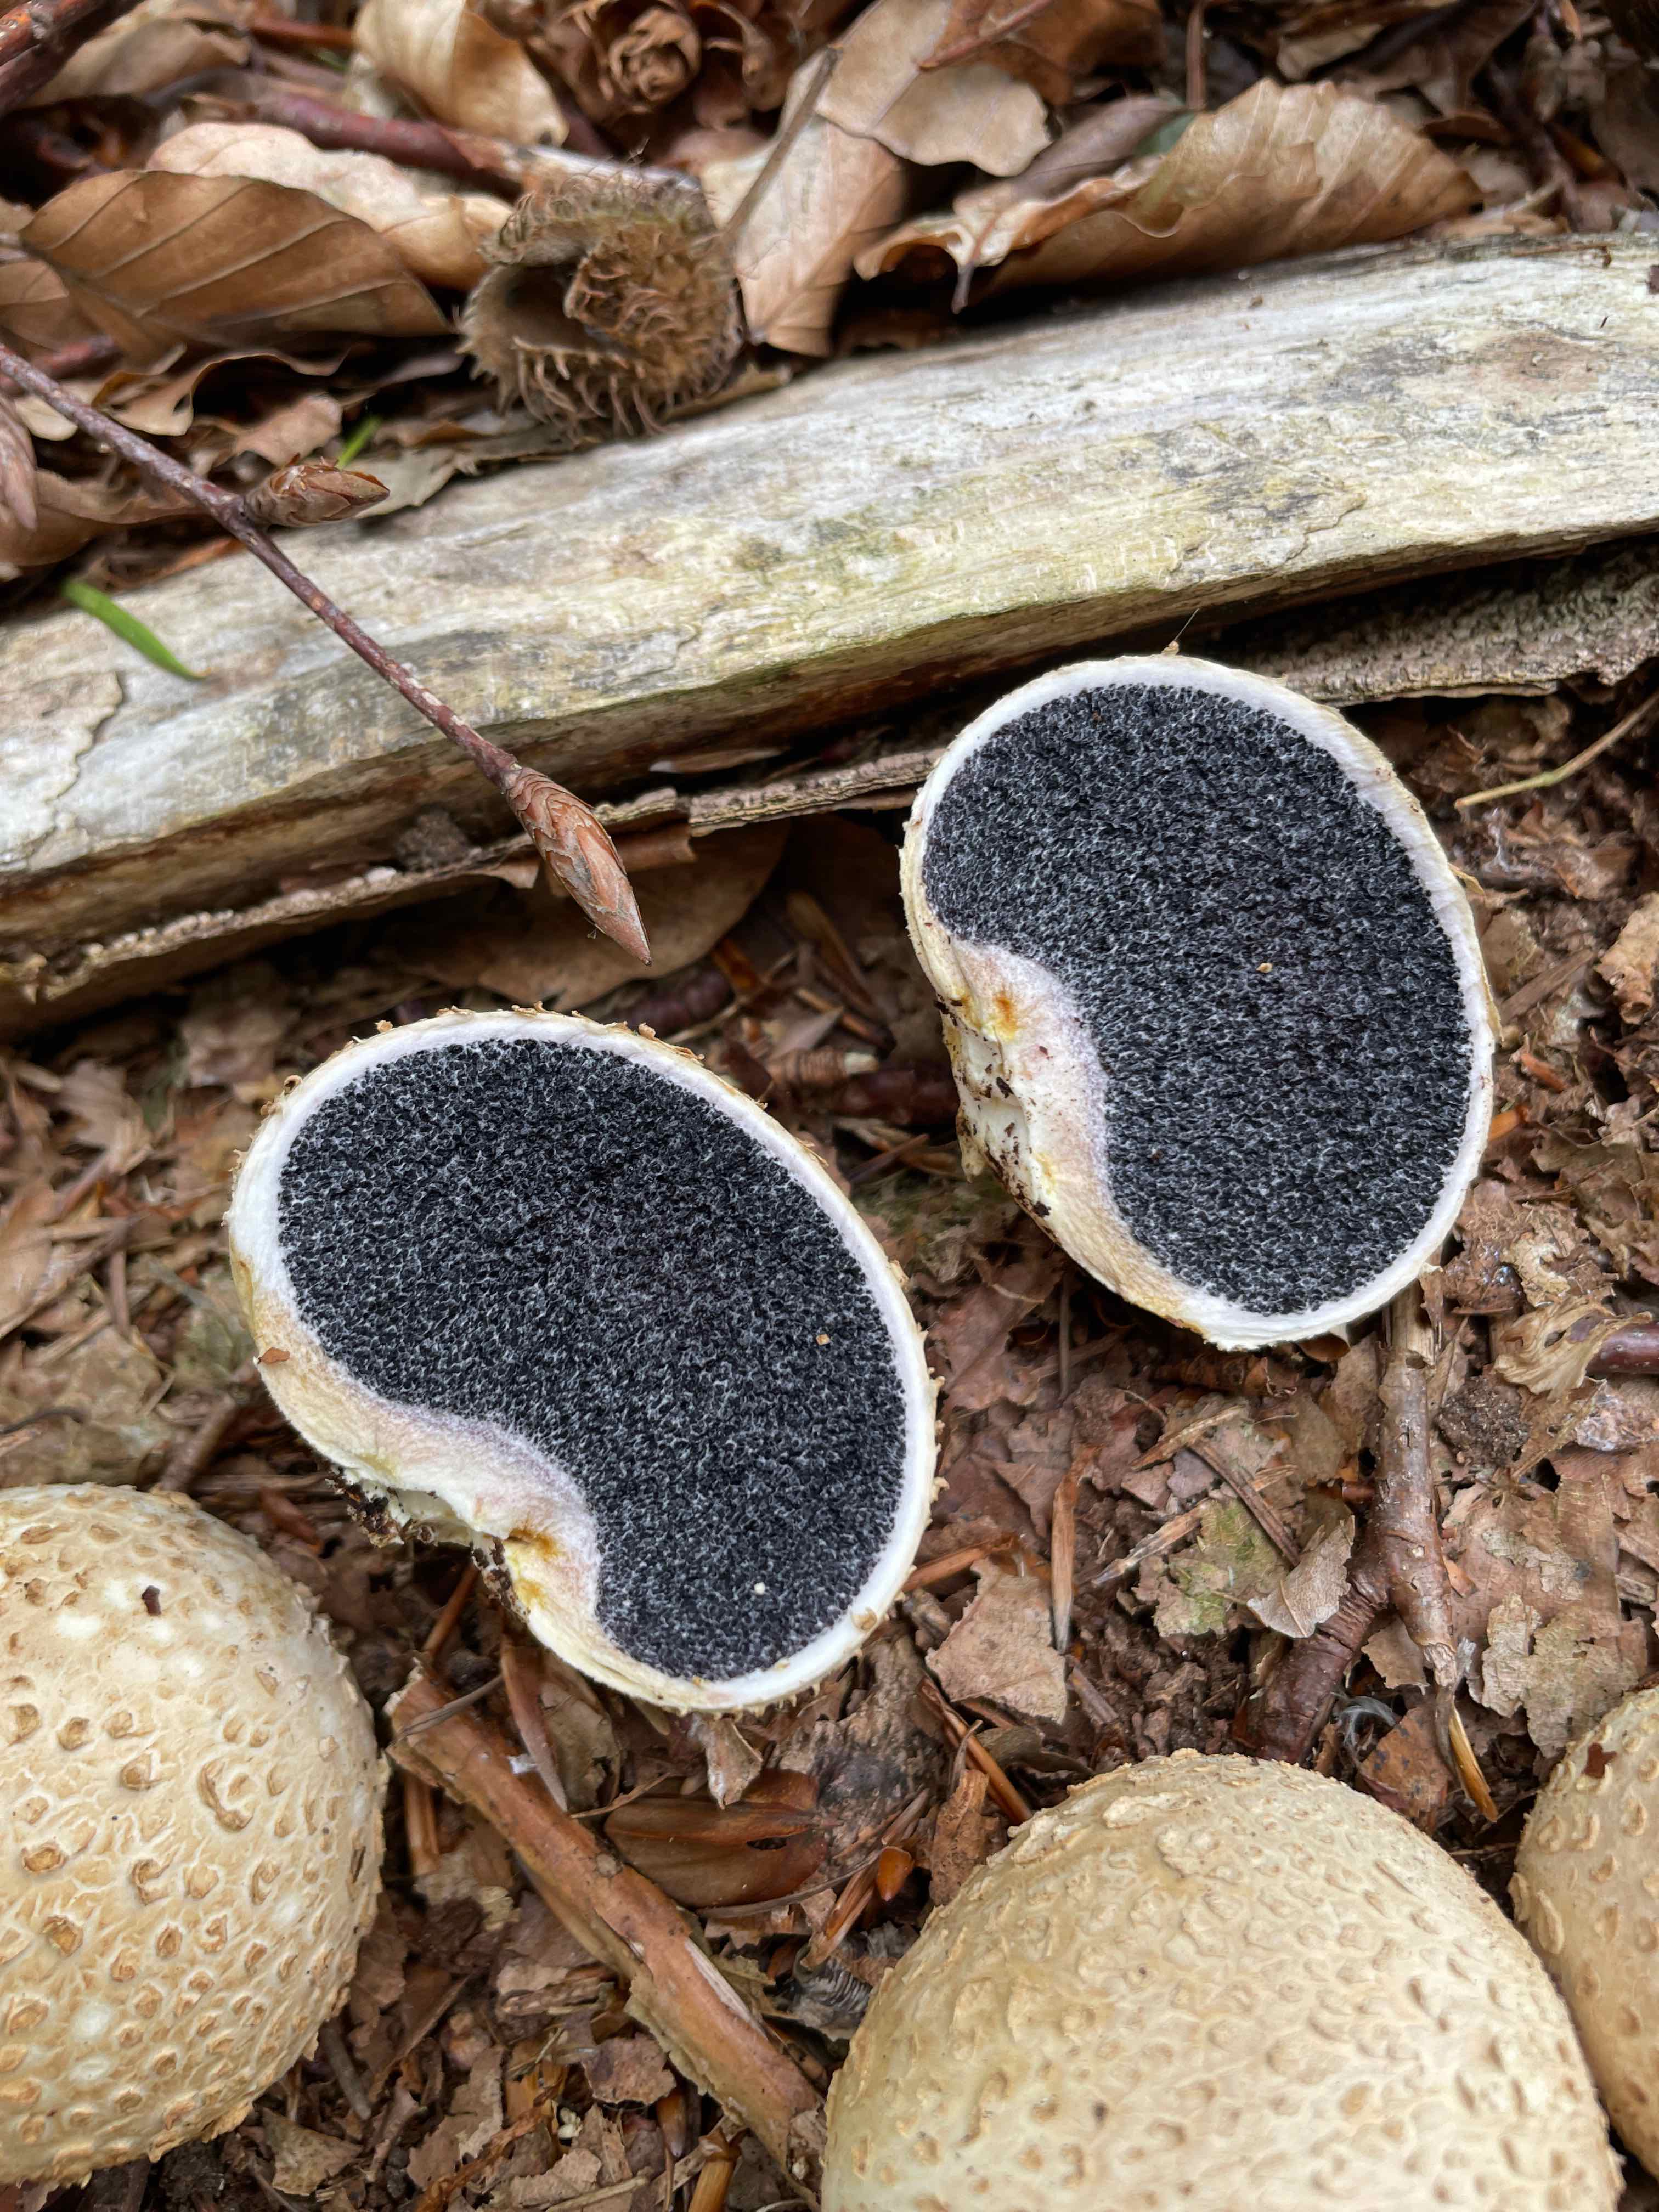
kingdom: Fungi
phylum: Basidiomycota
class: Agaricomycetes
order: Boletales
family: Sclerodermataceae
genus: Scleroderma
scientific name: Scleroderma citrinum
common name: almindelig bruskbold
